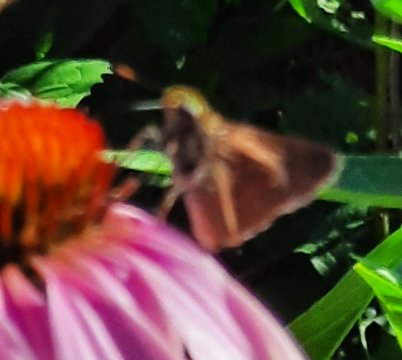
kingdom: Animalia
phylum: Arthropoda
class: Insecta
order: Lepidoptera
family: Hesperiidae
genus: Euphyes
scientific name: Euphyes vestris
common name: Dun Skipper
